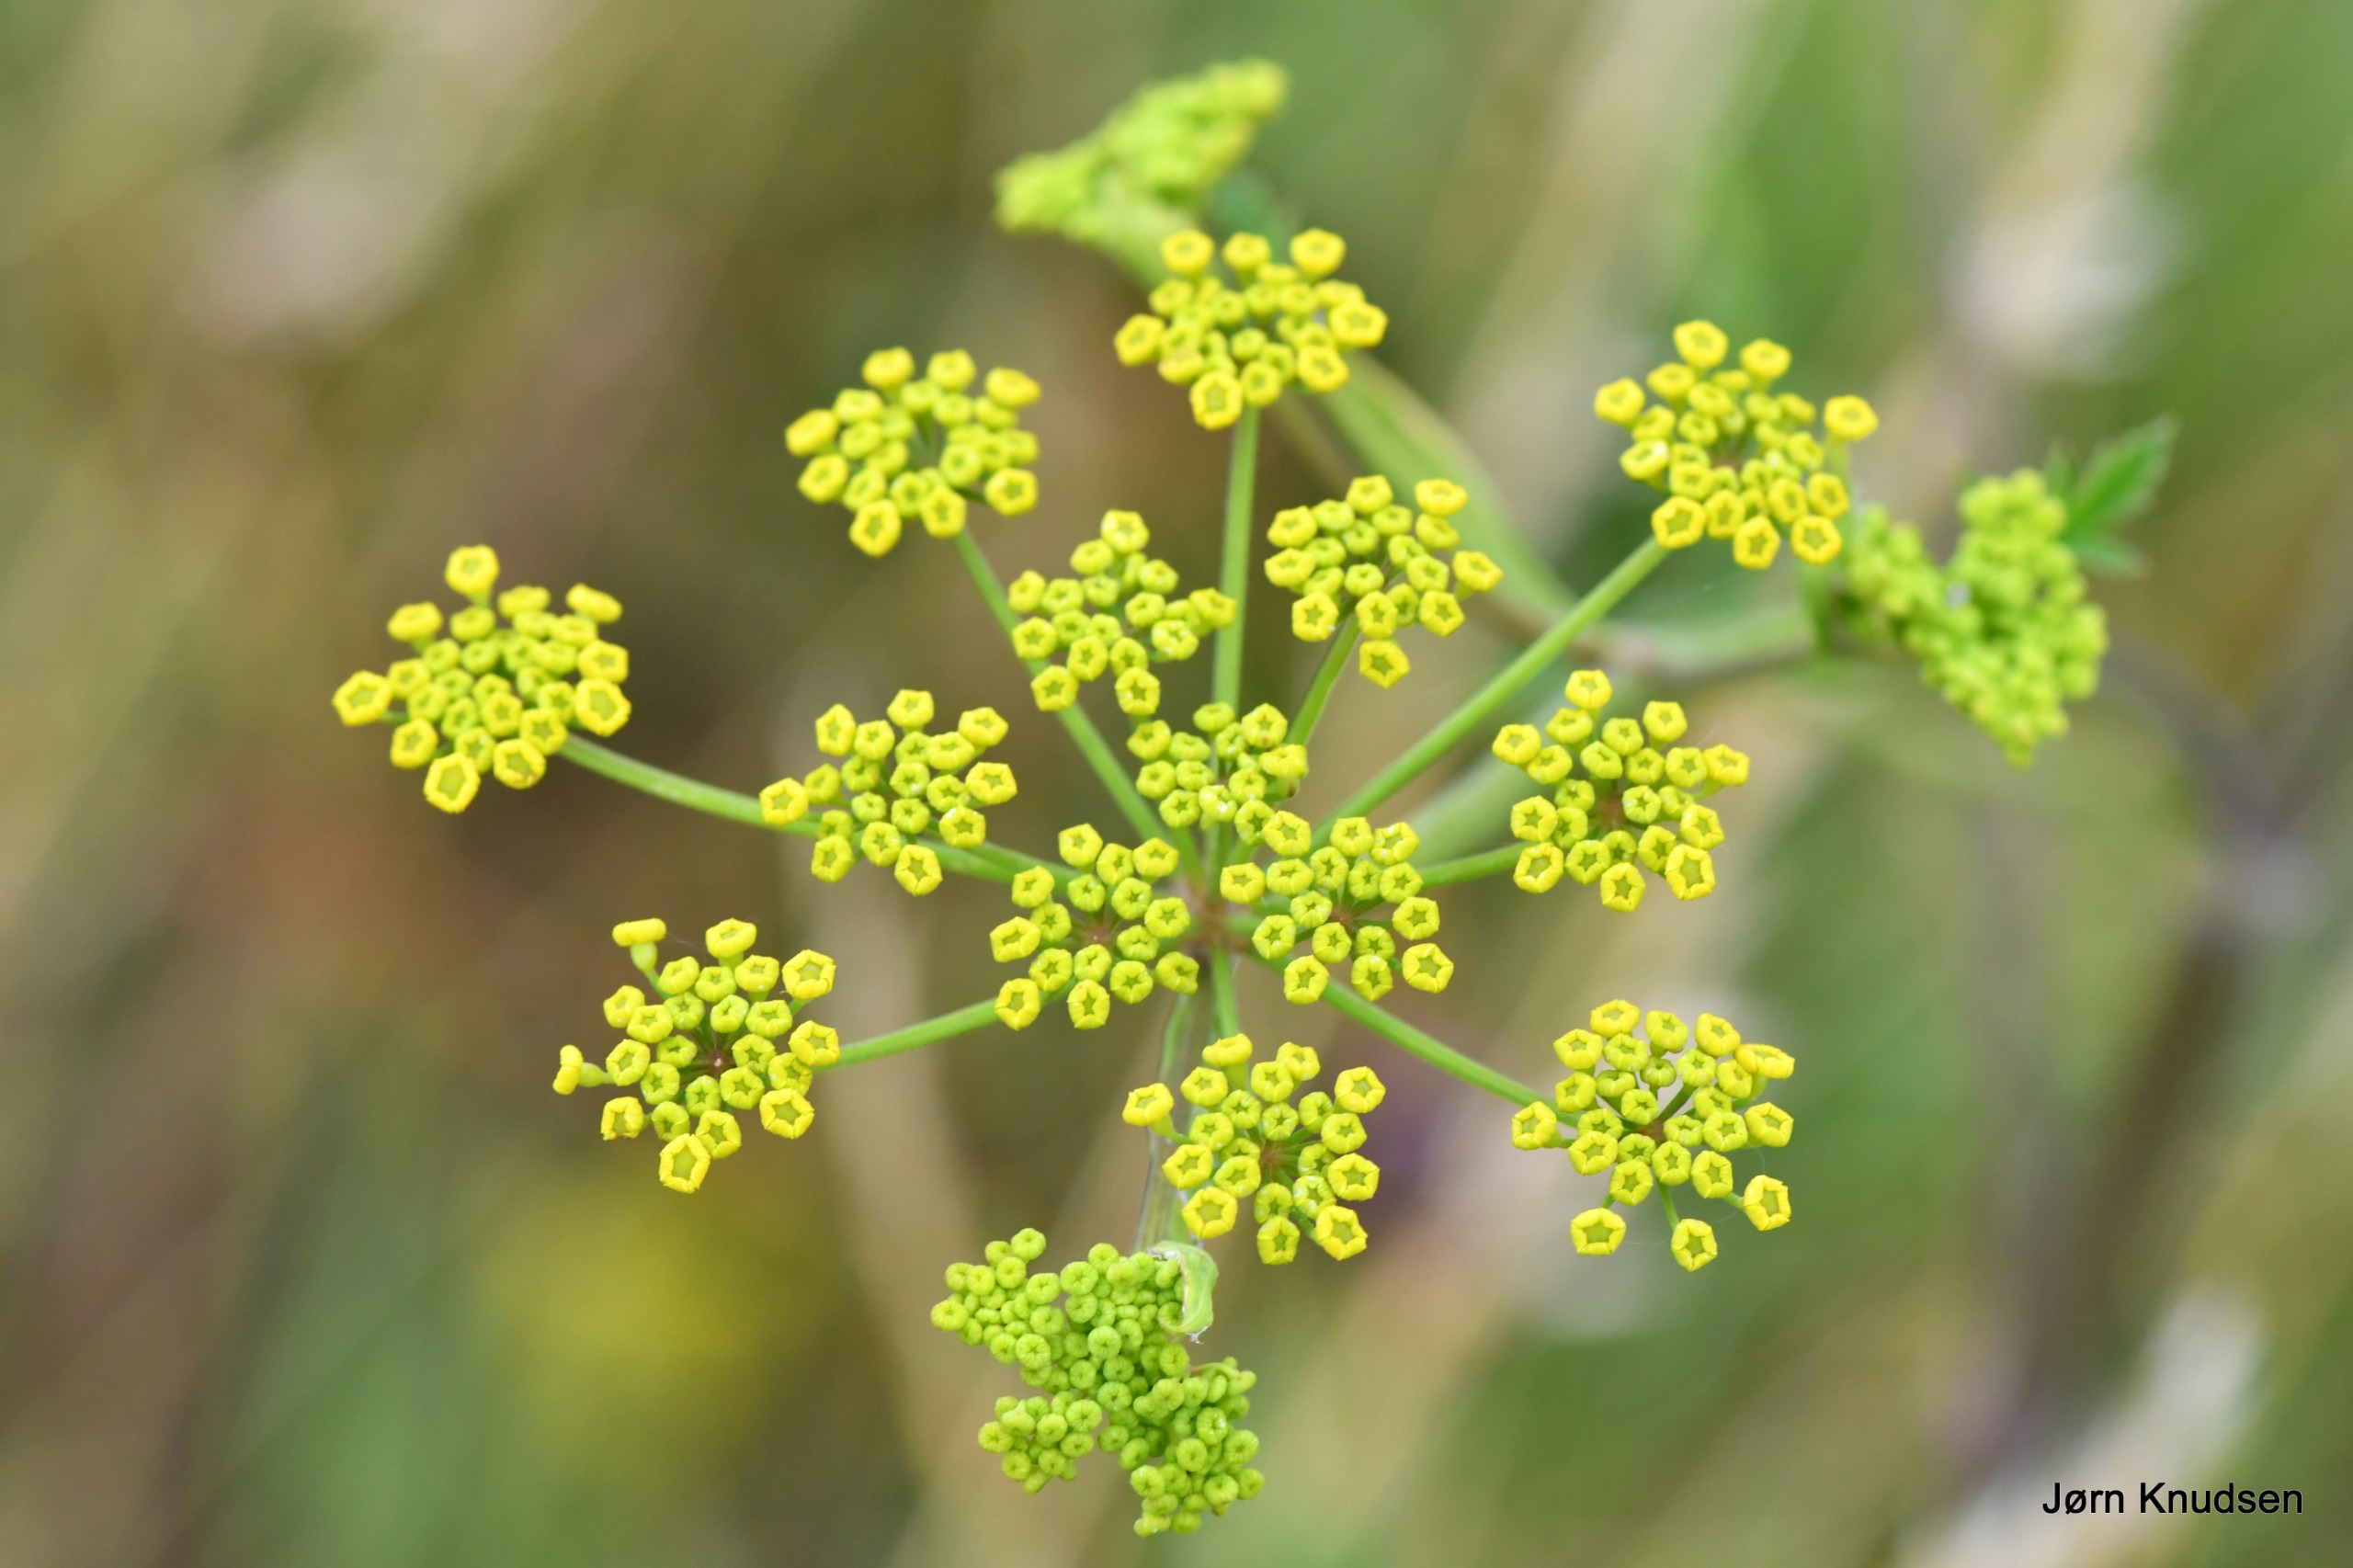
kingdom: Plantae
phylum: Tracheophyta
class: Magnoliopsida
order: Apiales
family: Apiaceae
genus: Pastinaca
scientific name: Pastinaca sativa
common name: Pastinak
